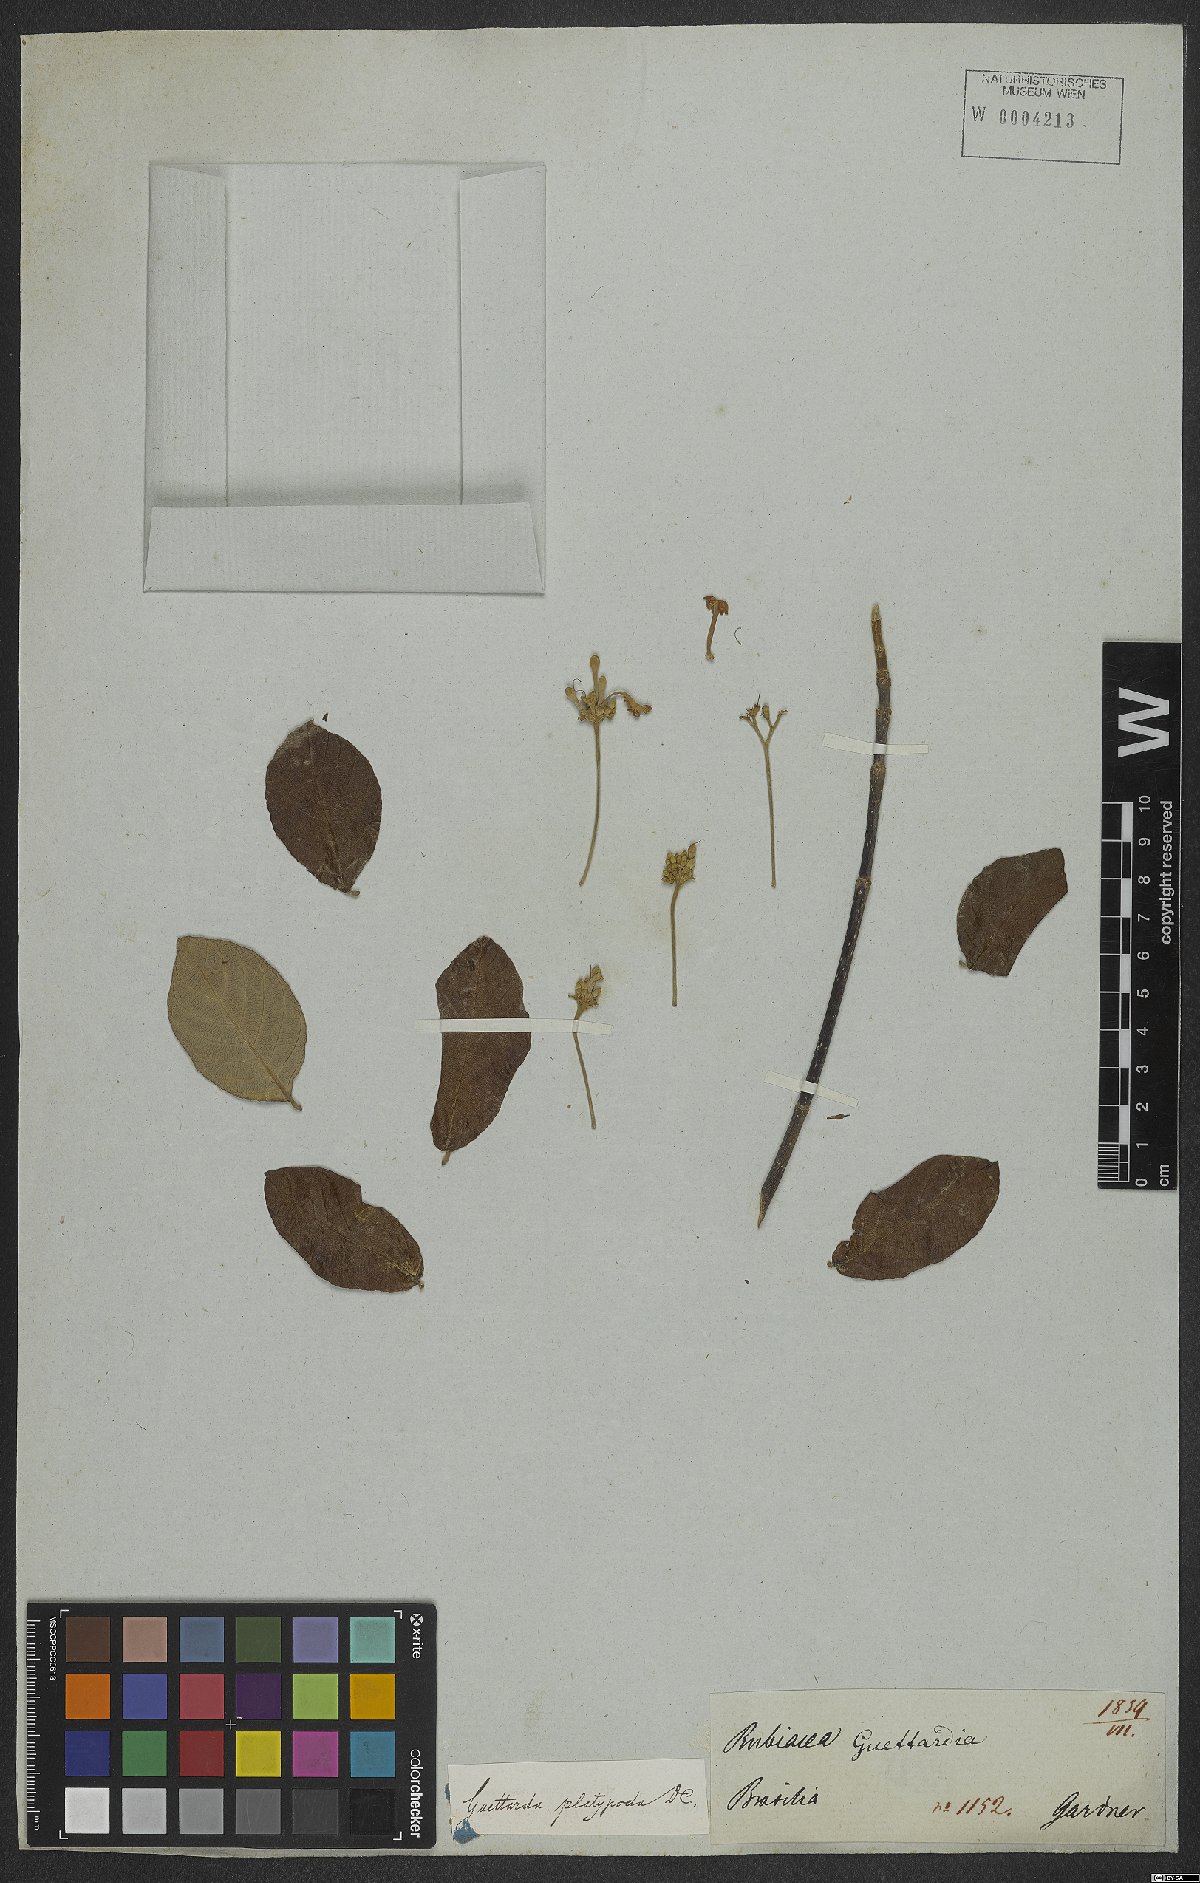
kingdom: Plantae
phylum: Tracheophyta
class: Magnoliopsida
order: Gentianales
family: Rubiaceae
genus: Guettarda
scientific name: Guettarda platypoda
